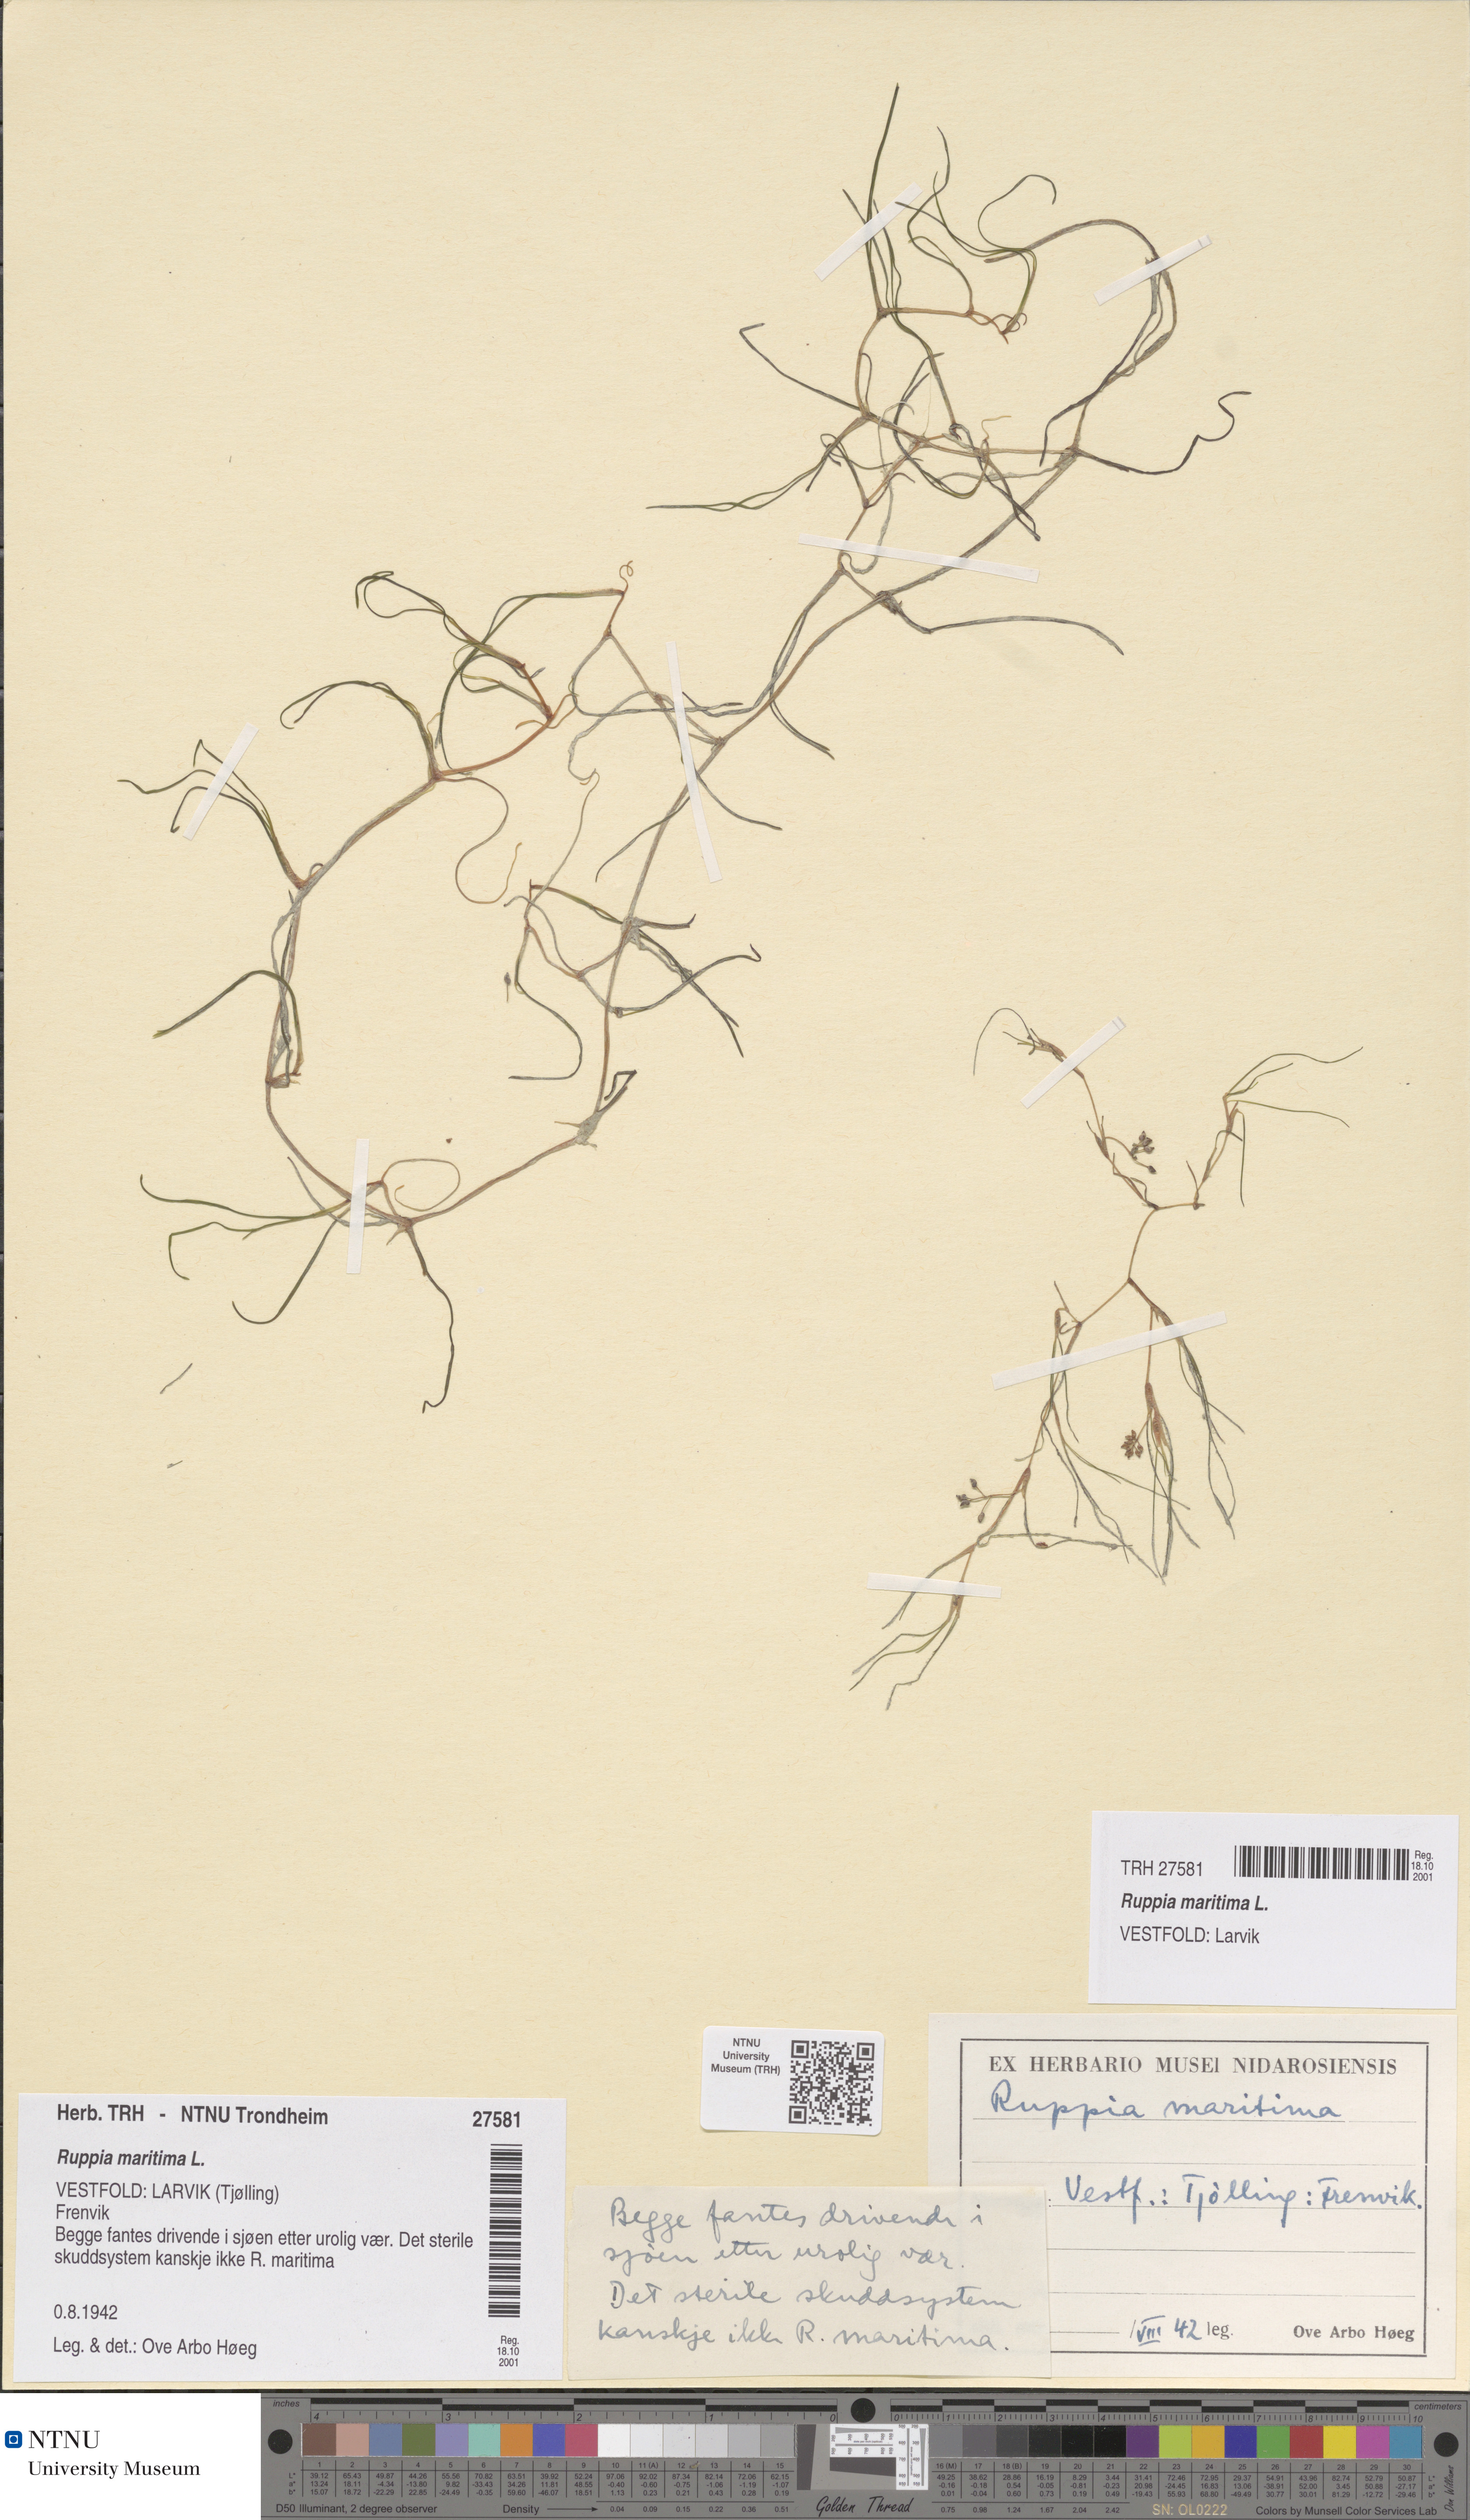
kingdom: Plantae
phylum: Tracheophyta
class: Liliopsida
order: Alismatales
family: Ruppiaceae
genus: Ruppia
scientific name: Ruppia maritima
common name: Beaked tasselweed
